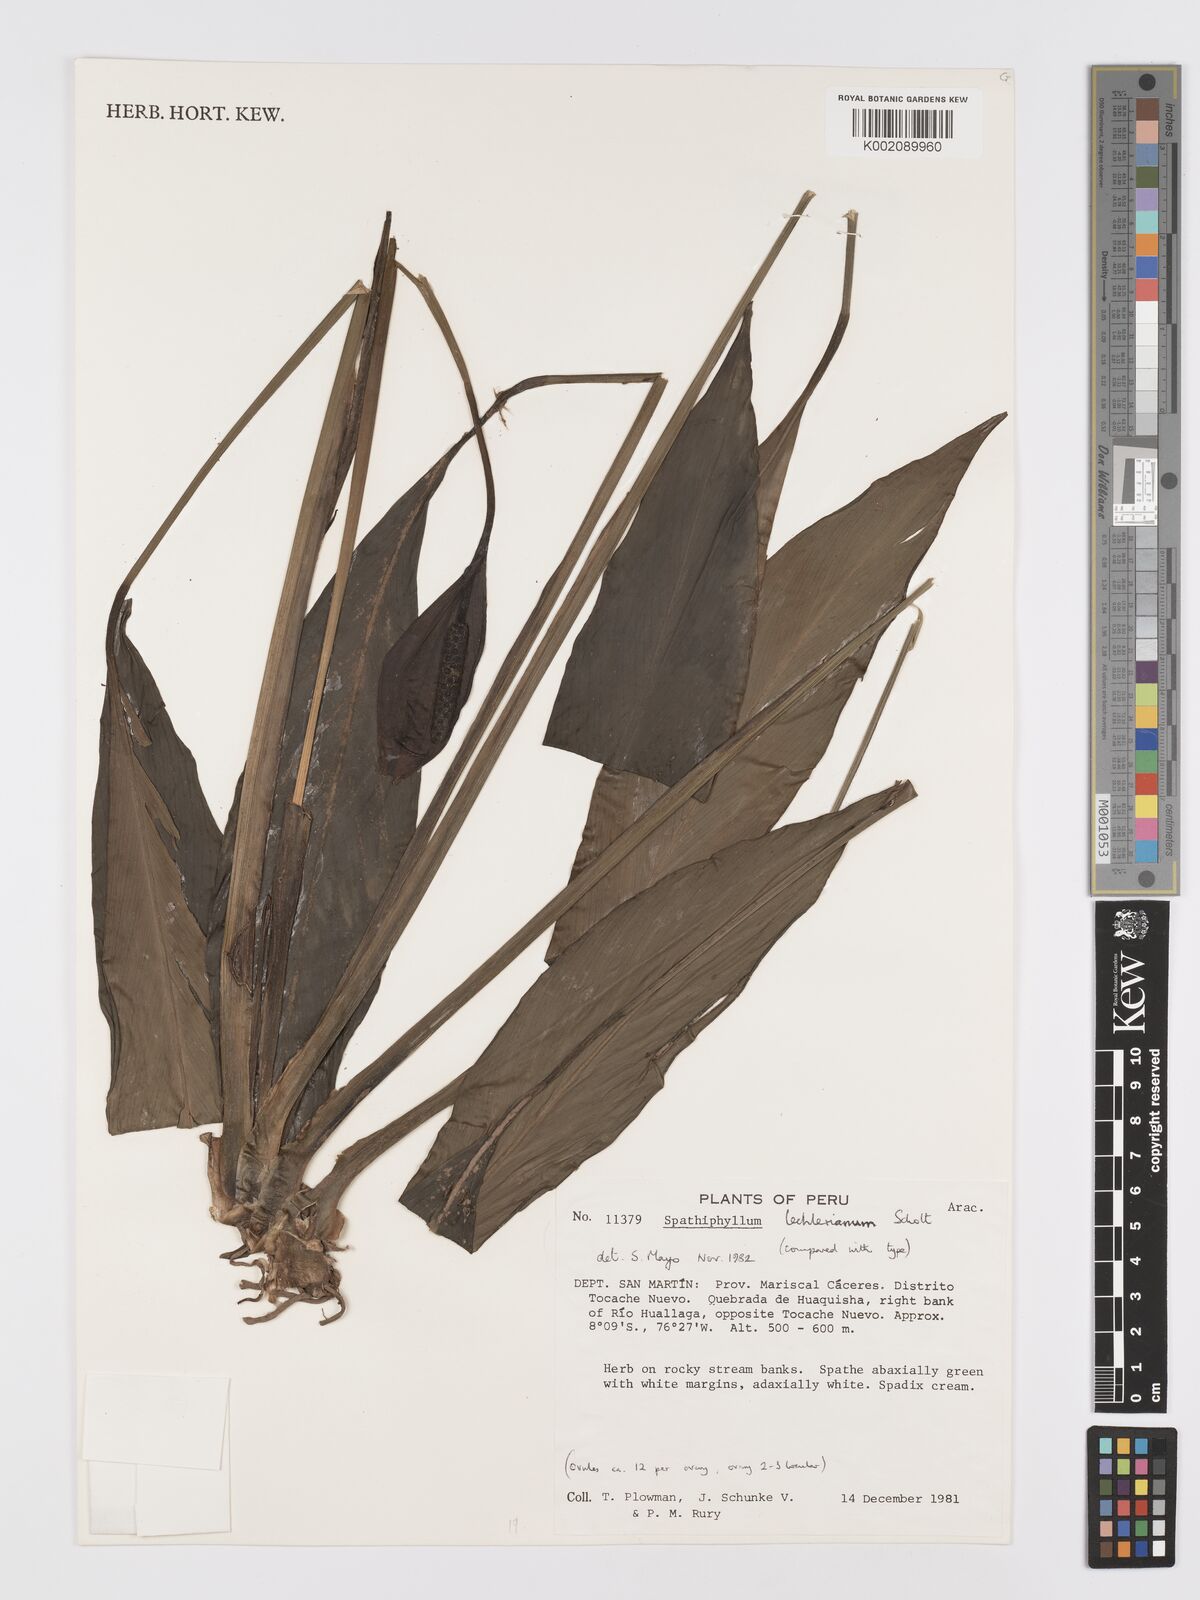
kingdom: Plantae
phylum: Tracheophyta
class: Liliopsida
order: Alismatales
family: Araceae
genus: Spathiphyllum
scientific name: Spathiphyllum lechlerianum
